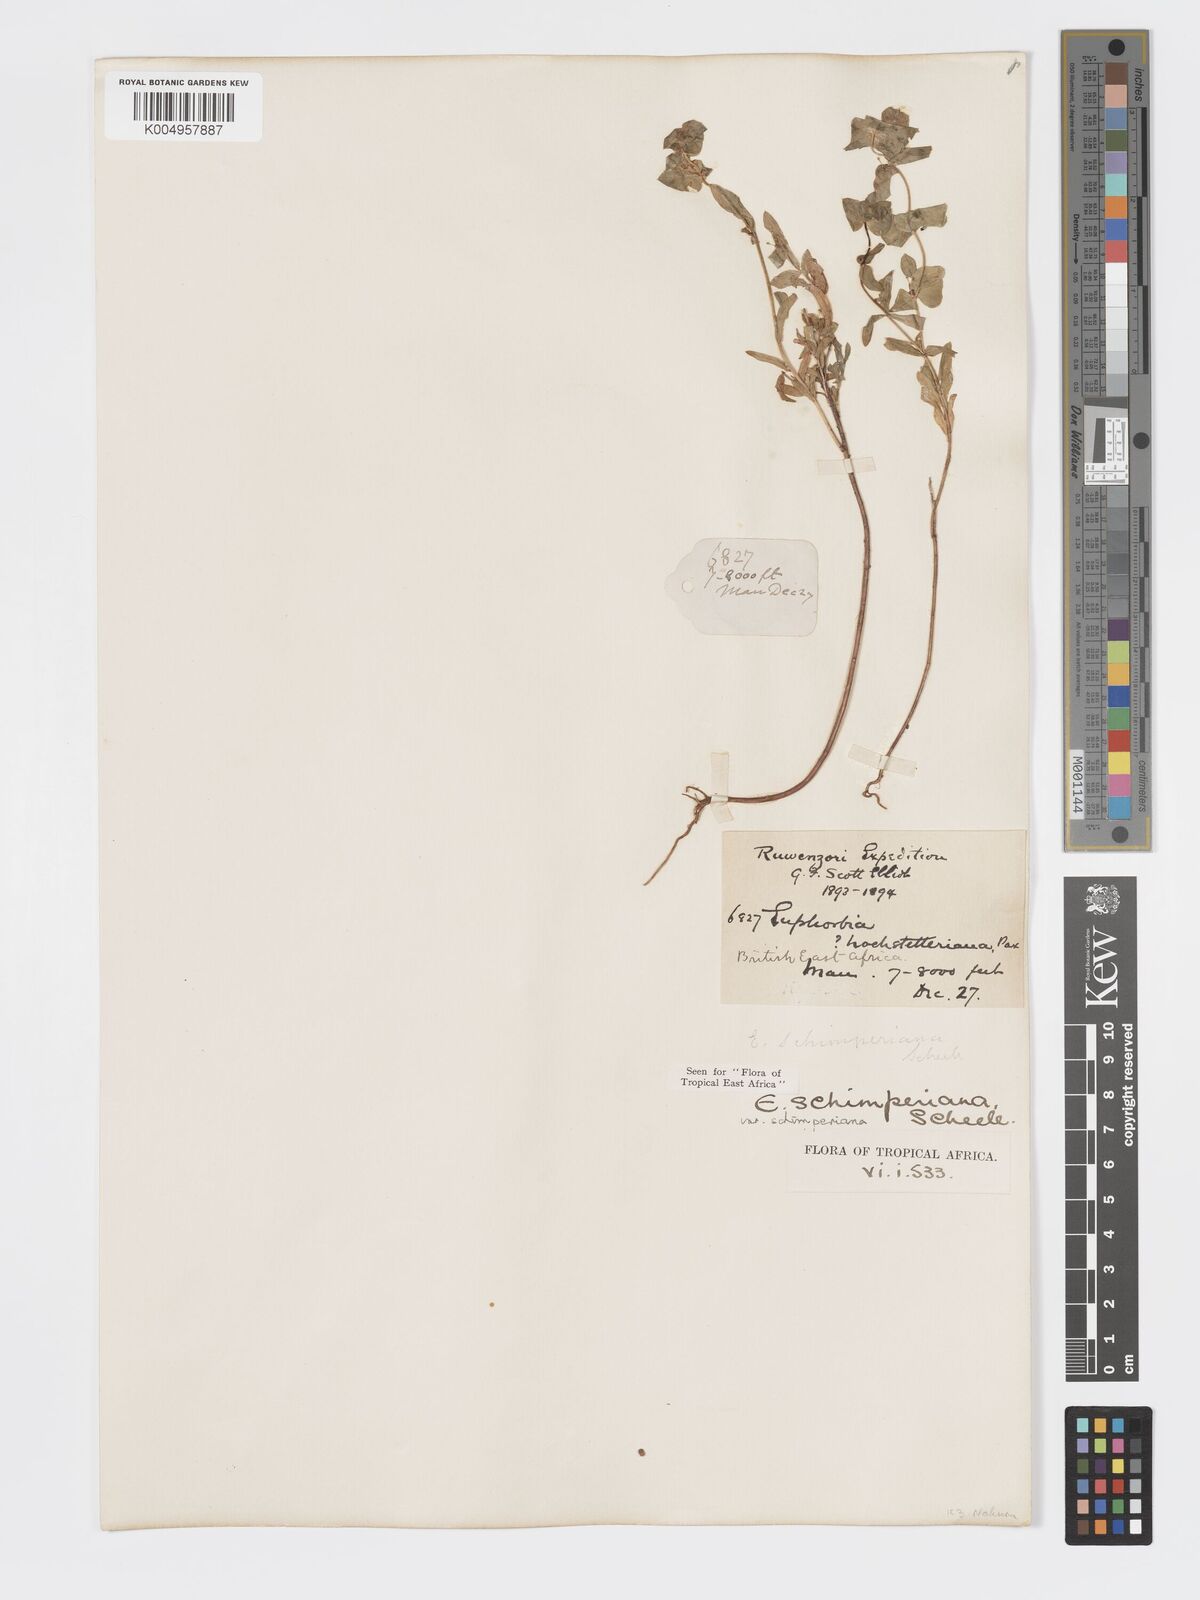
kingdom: Plantae
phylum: Tracheophyta
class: Magnoliopsida
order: Malpighiales
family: Euphorbiaceae
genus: Euphorbia
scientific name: Euphorbia schimperiana
